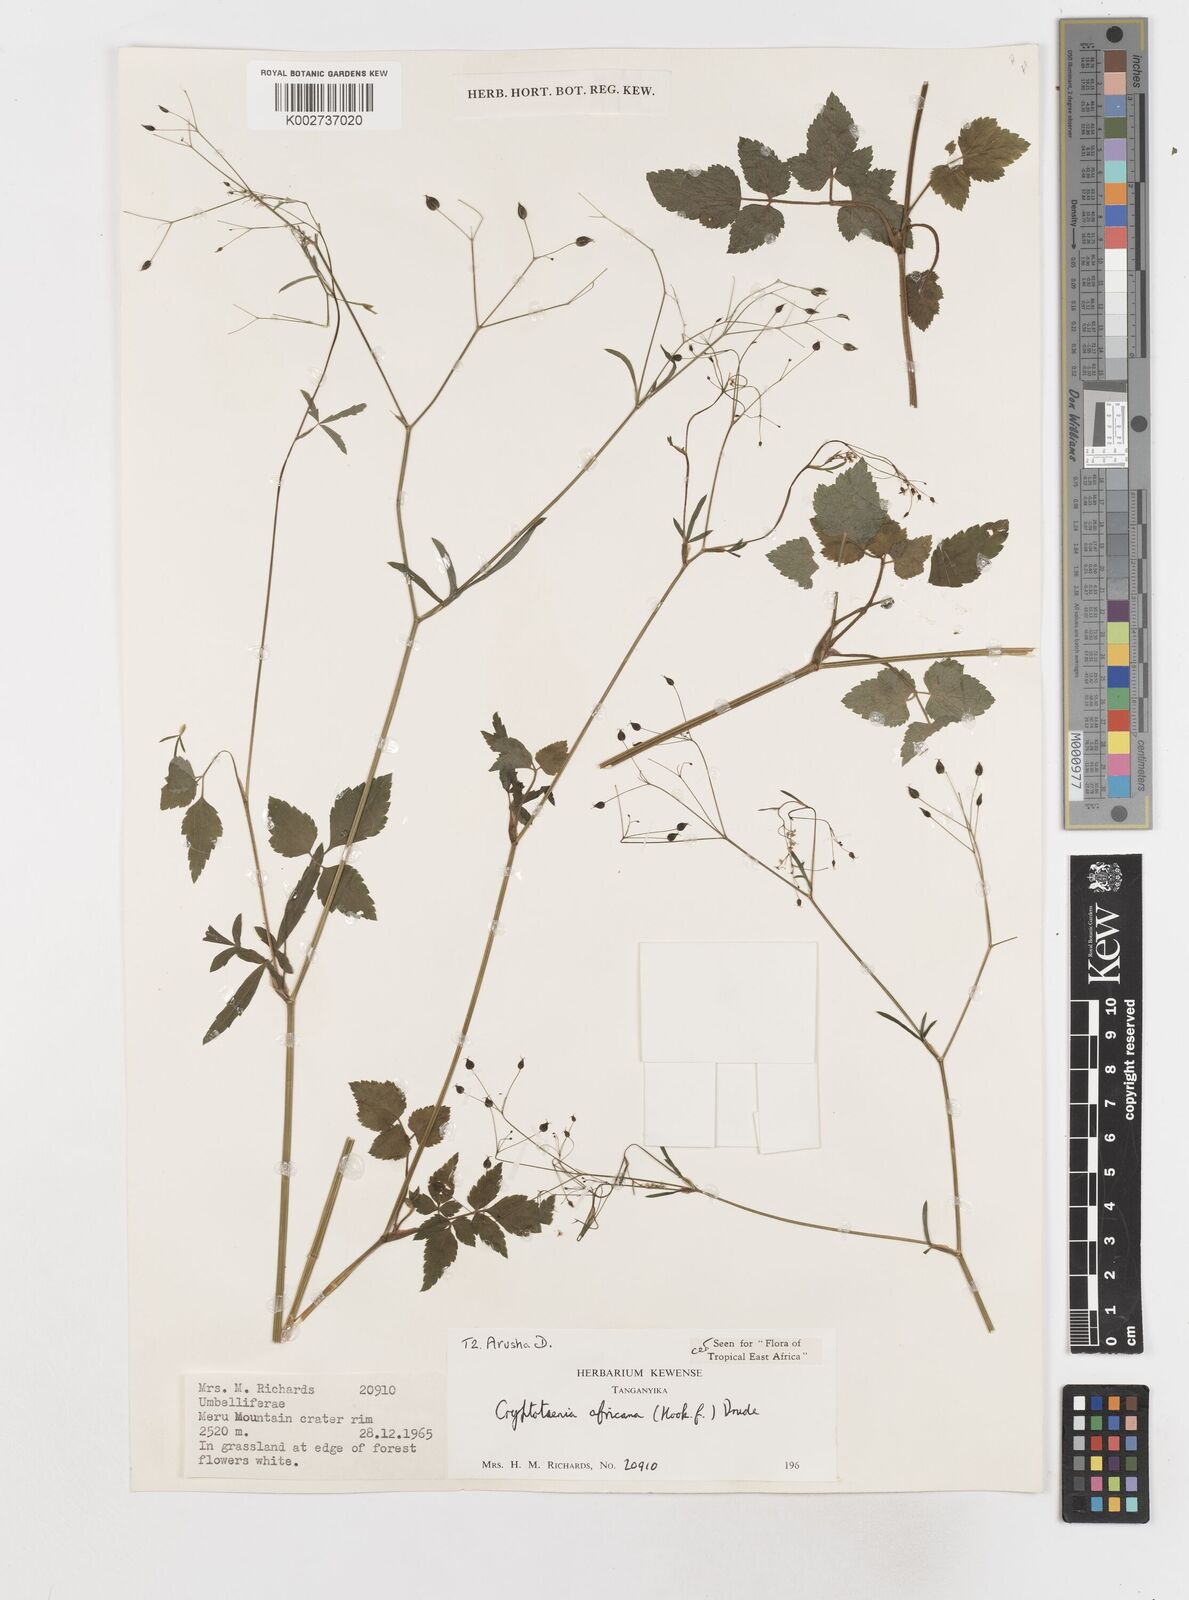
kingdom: Plantae
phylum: Tracheophyta
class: Magnoliopsida
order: Apiales
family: Apiaceae
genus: Cryptotaenia
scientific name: Cryptotaenia africana
